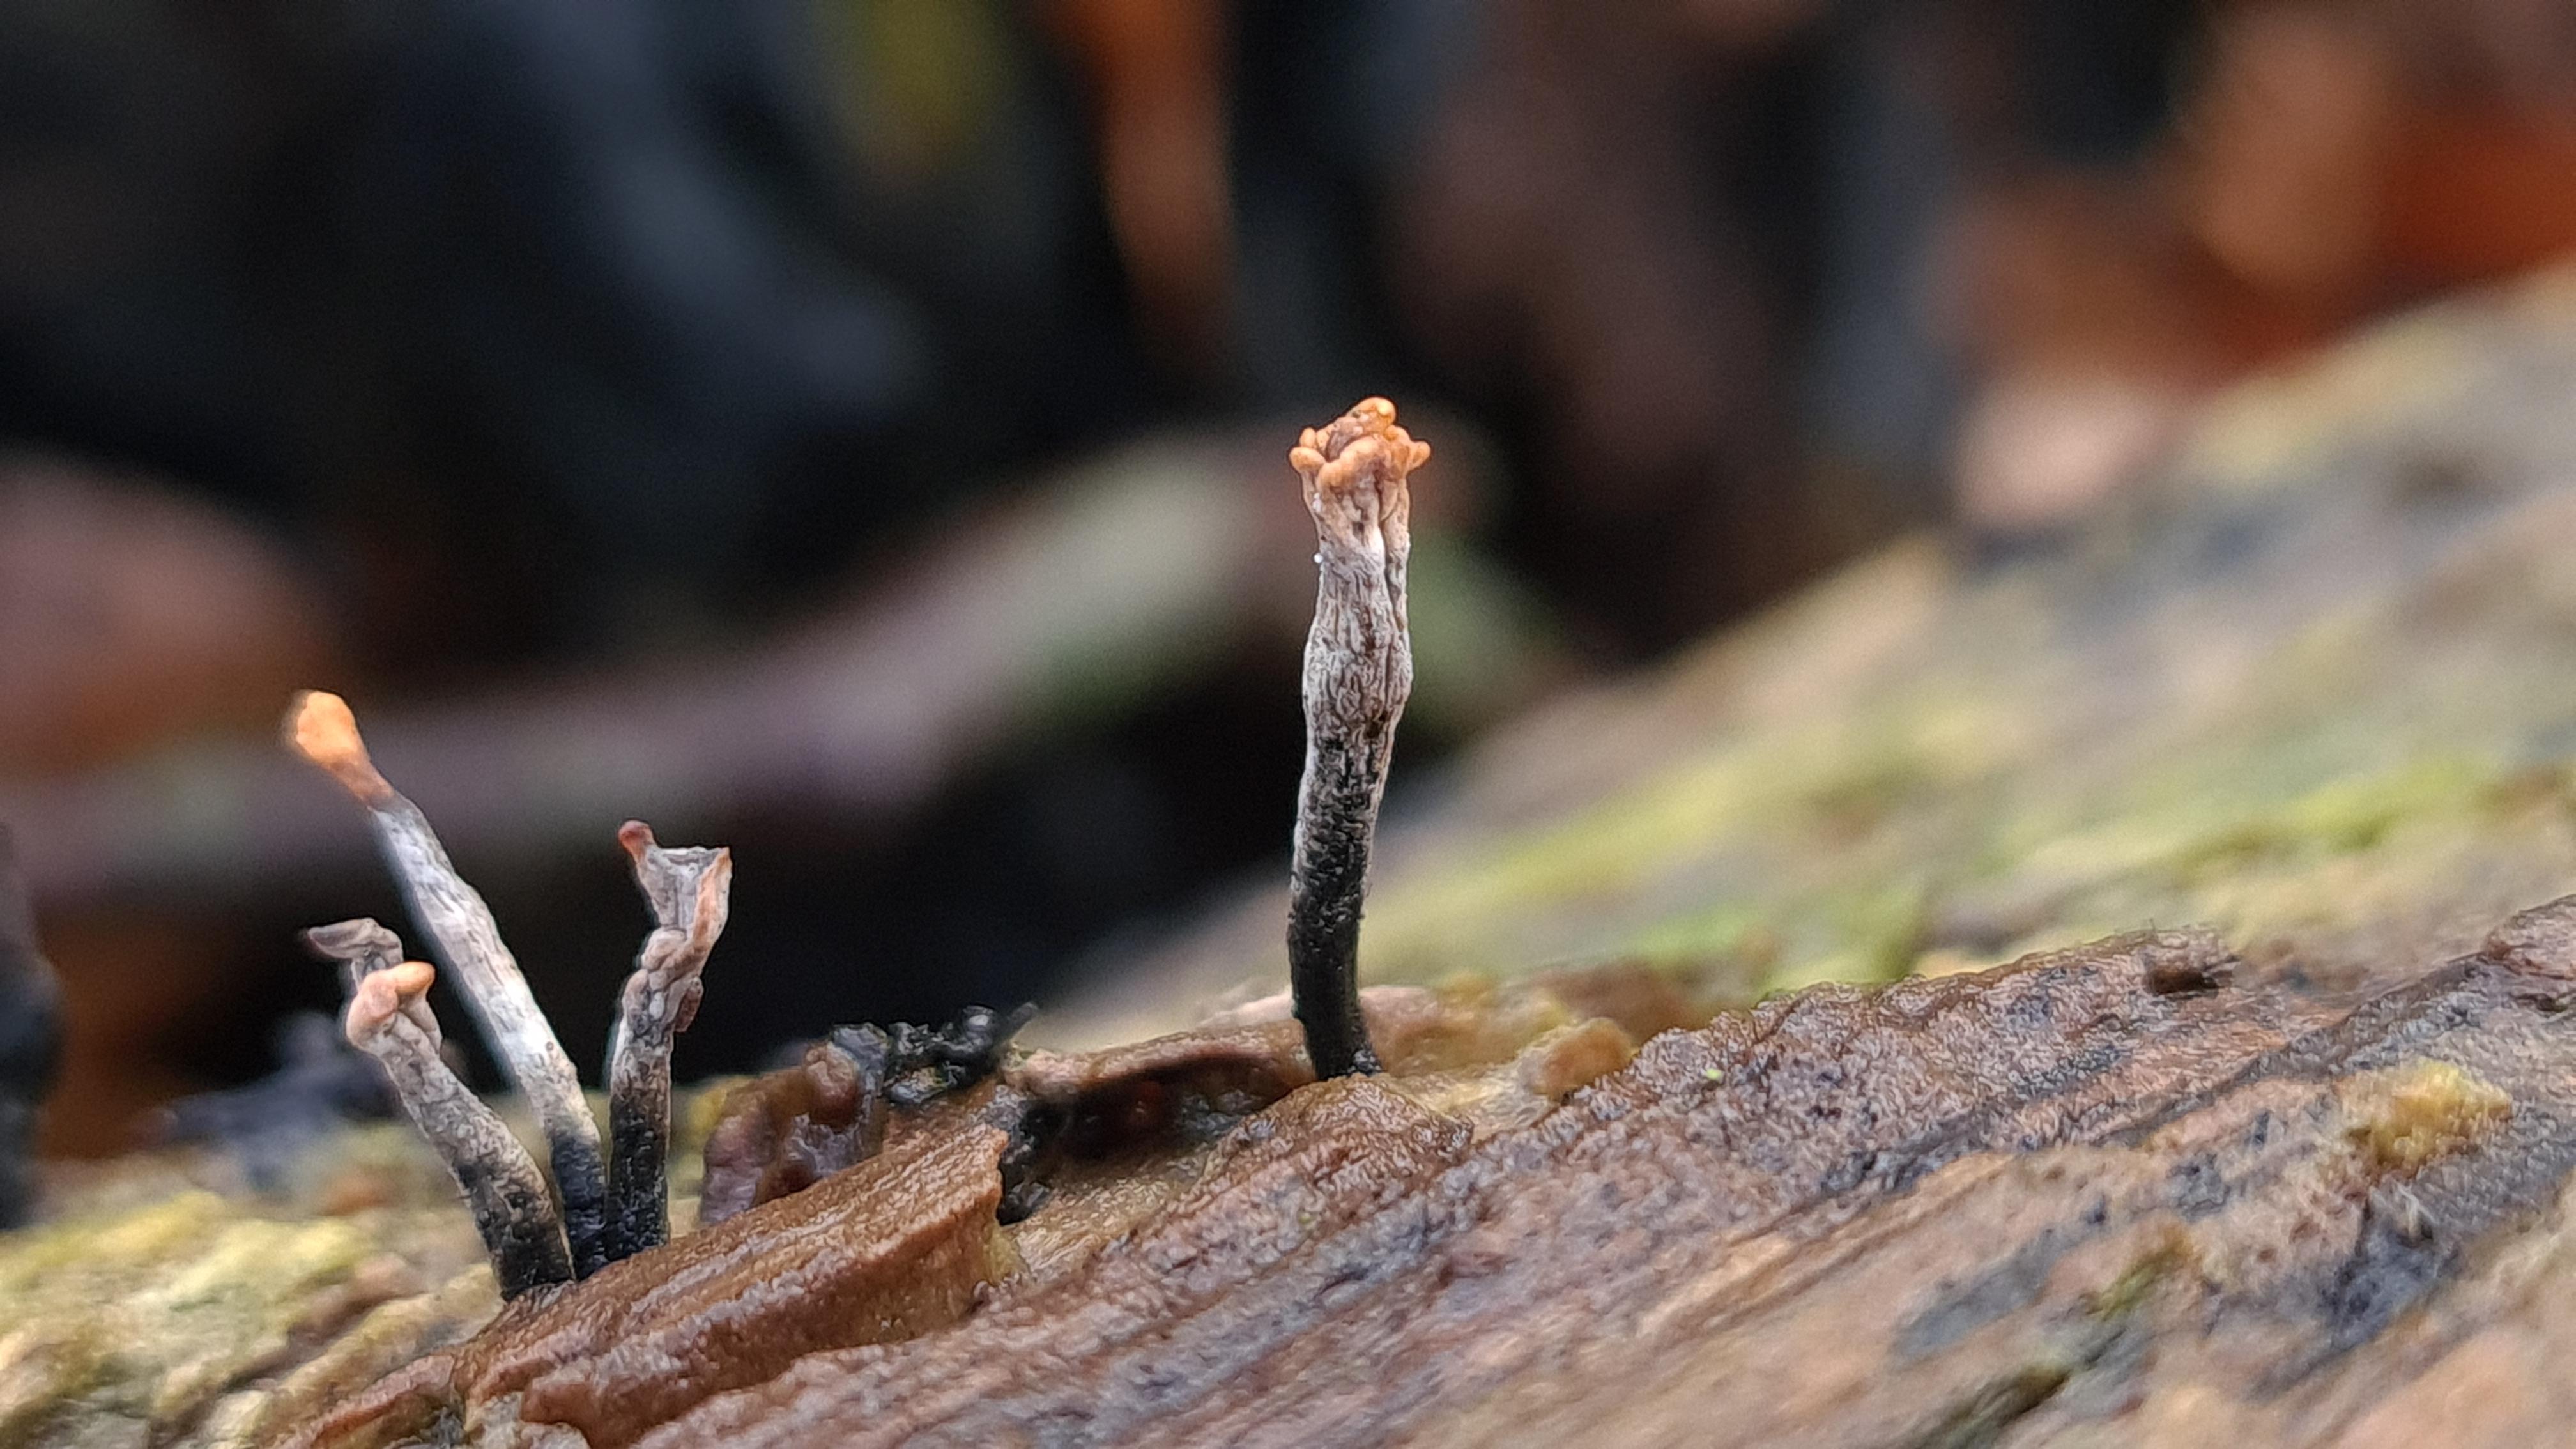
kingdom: Fungi
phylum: Ascomycota
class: Sordariomycetes
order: Xylariales
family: Xylariaceae
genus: Xylaria
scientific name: Xylaria hypoxylon
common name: grenet stødsvamp
